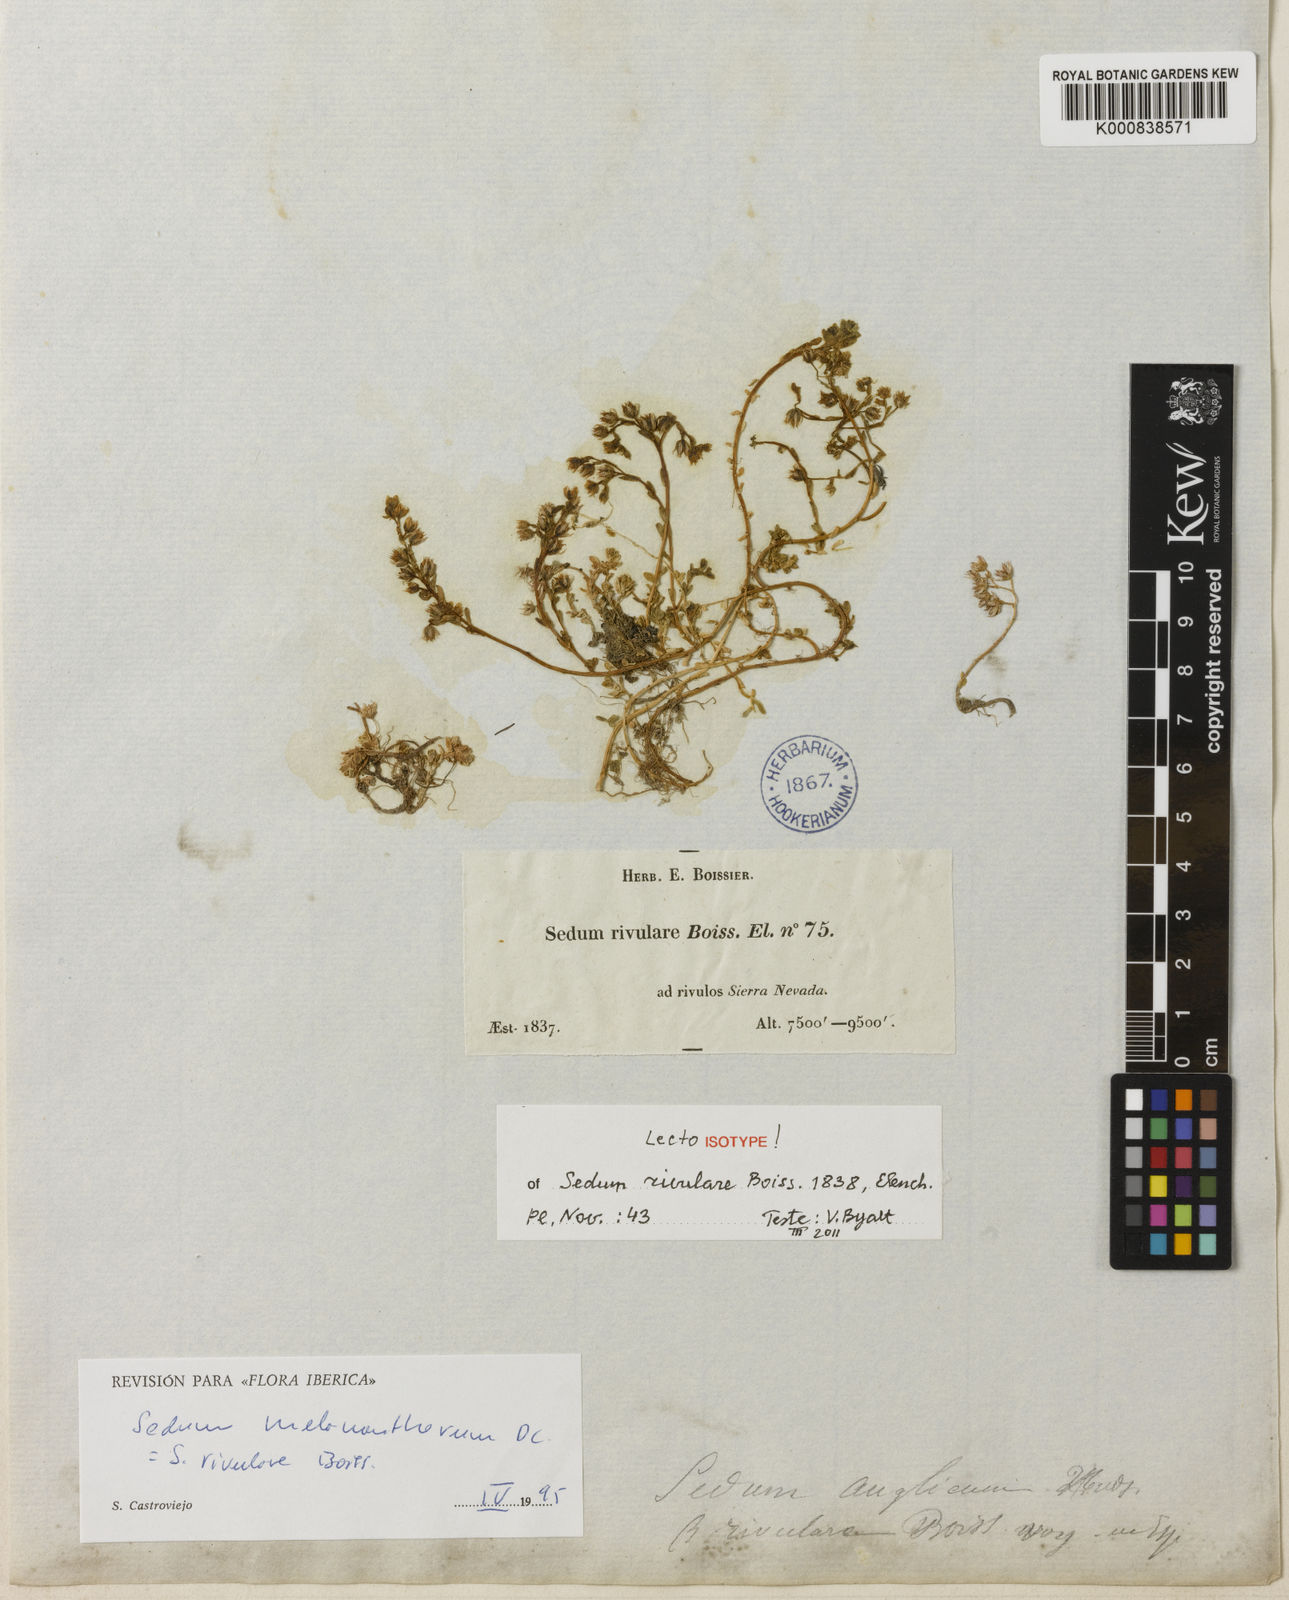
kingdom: Plantae
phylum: Tracheophyta
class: Magnoliopsida
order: Saxifragales
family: Crassulaceae
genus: Sedum
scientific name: Sedum anglicum
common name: English stonecrop
